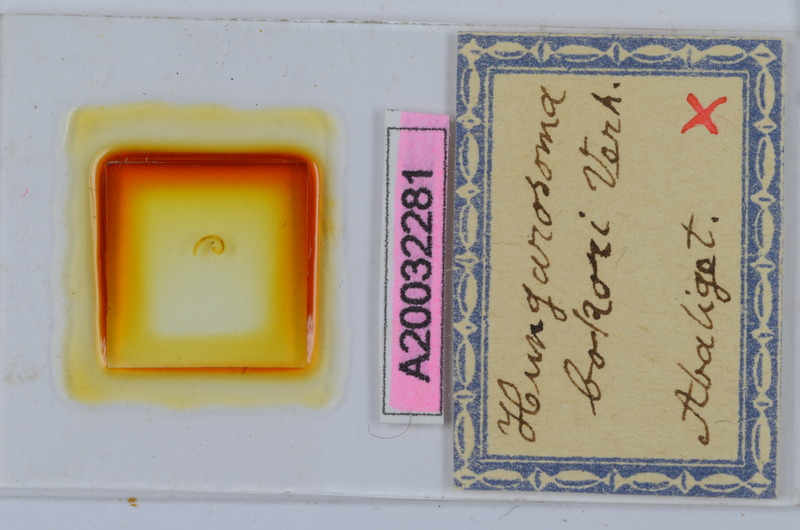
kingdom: Animalia
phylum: Arthropoda
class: Diplopoda
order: Chordeumatida
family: Hungarosomatidae
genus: Hungarosoma
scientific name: Hungarosoma bokori
